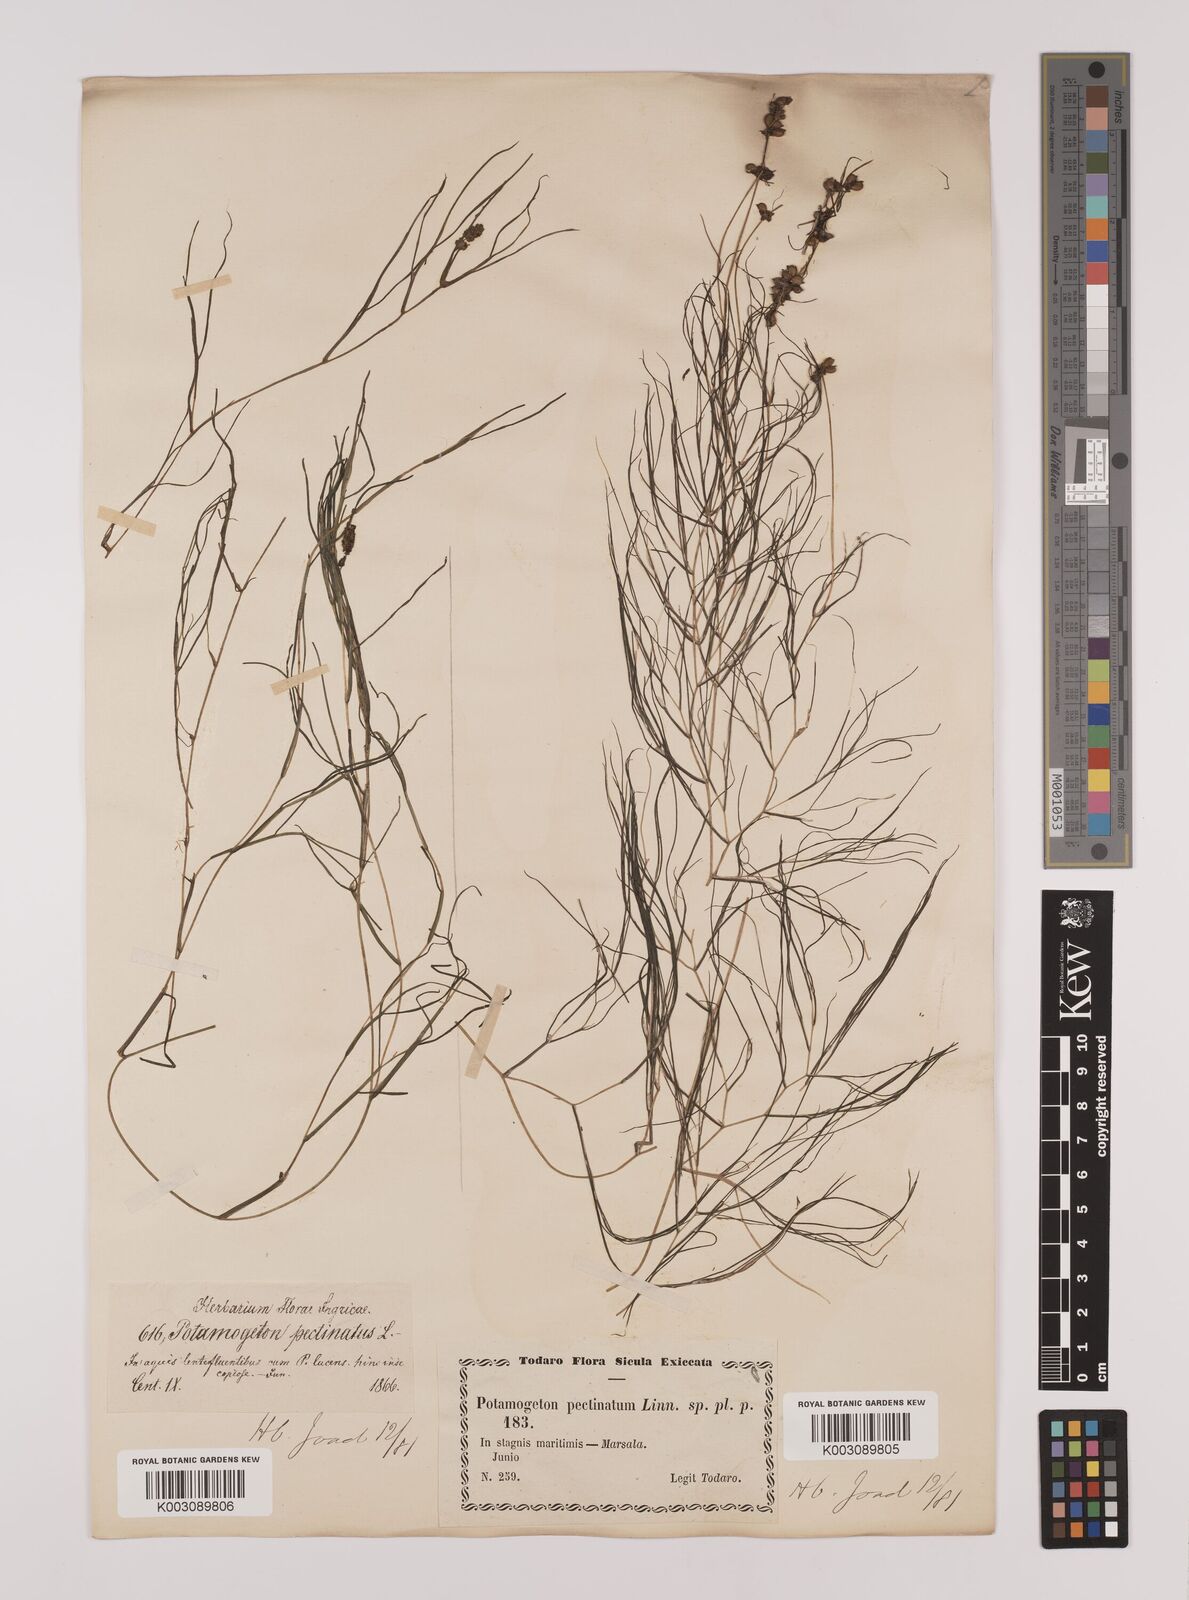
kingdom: Plantae
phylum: Tracheophyta
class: Liliopsida
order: Alismatales
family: Potamogetonaceae
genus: Stuckenia
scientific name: Stuckenia pectinata
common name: Sago pondweed
